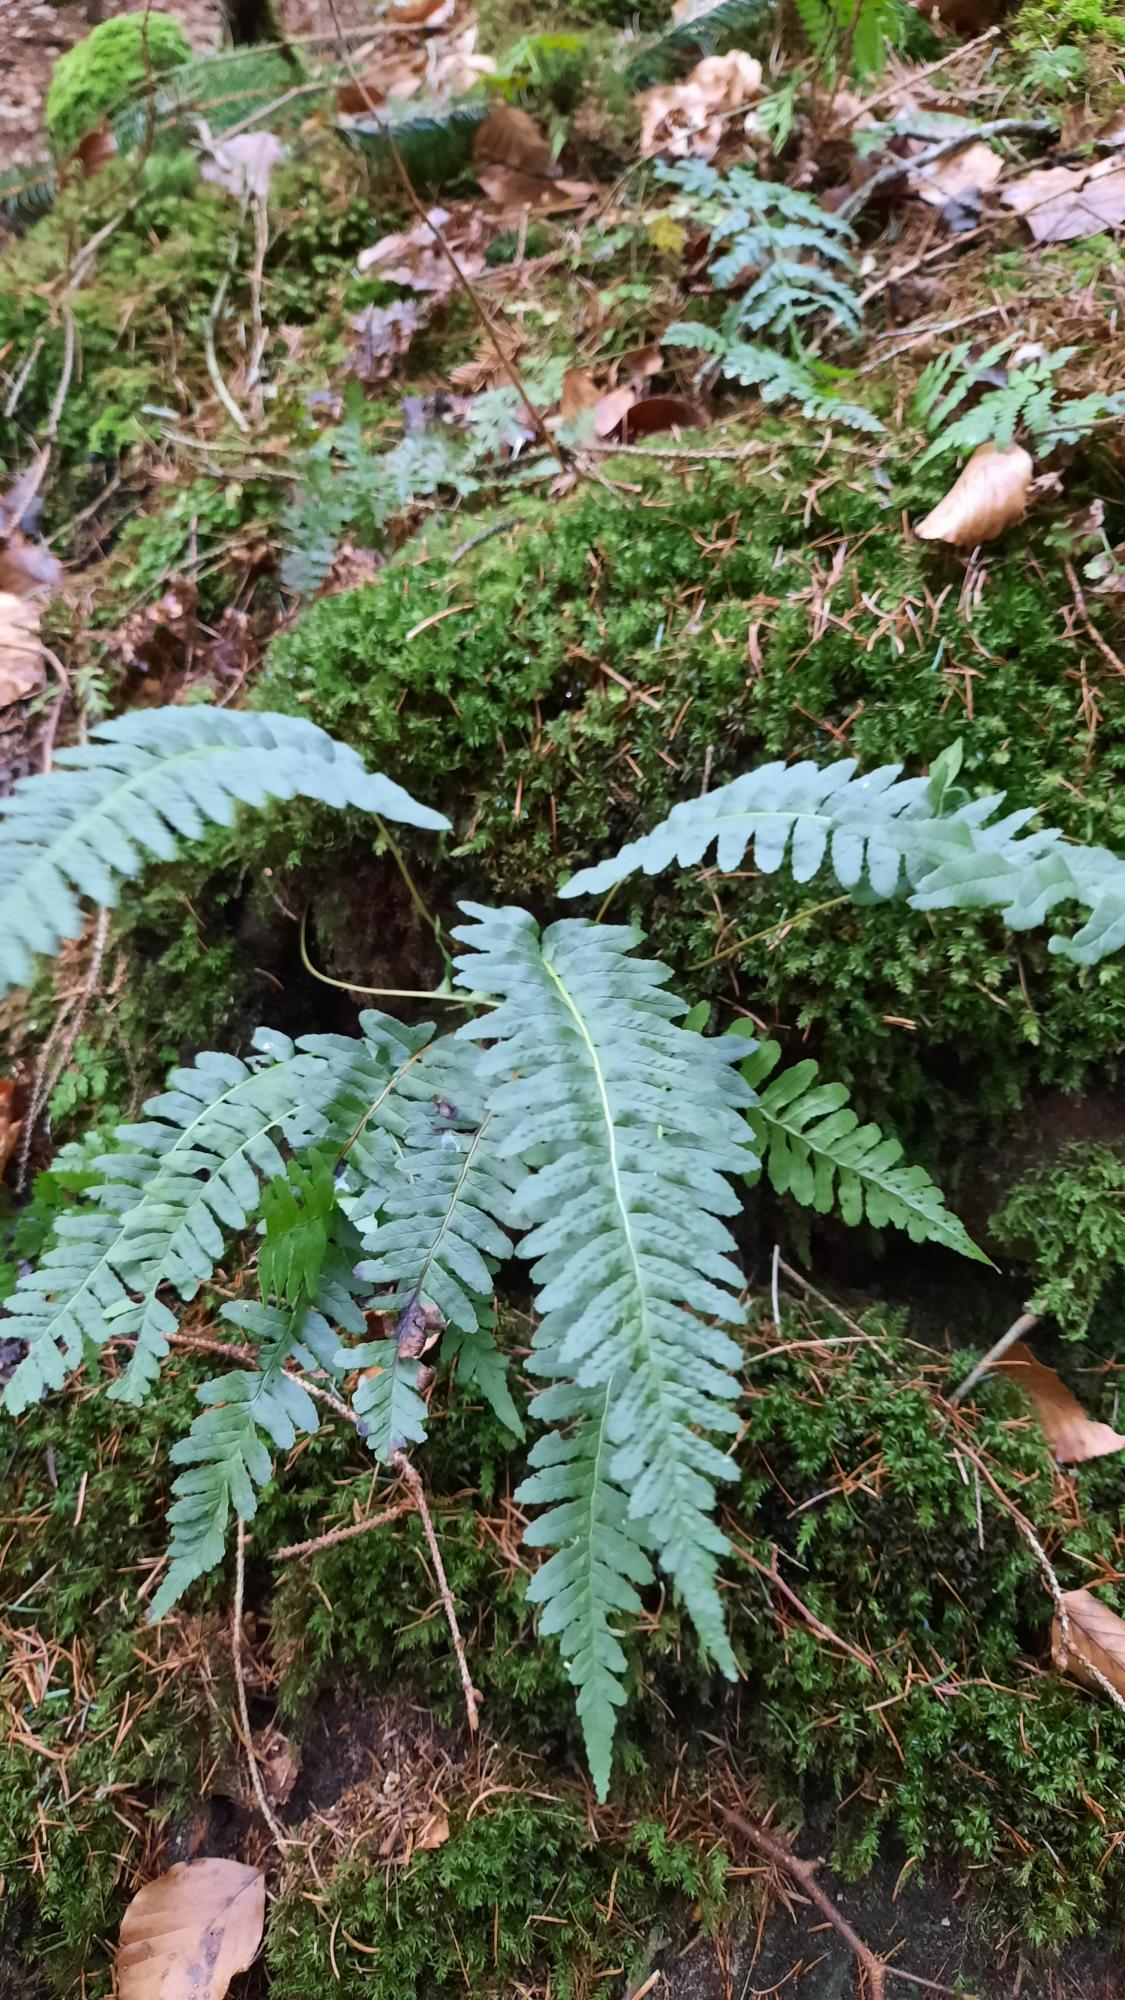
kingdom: Plantae
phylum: Tracheophyta
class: Polypodiopsida
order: Polypodiales
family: Polypodiaceae
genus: Polypodium
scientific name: Polypodium vulgare
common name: Almindelig engelsød
